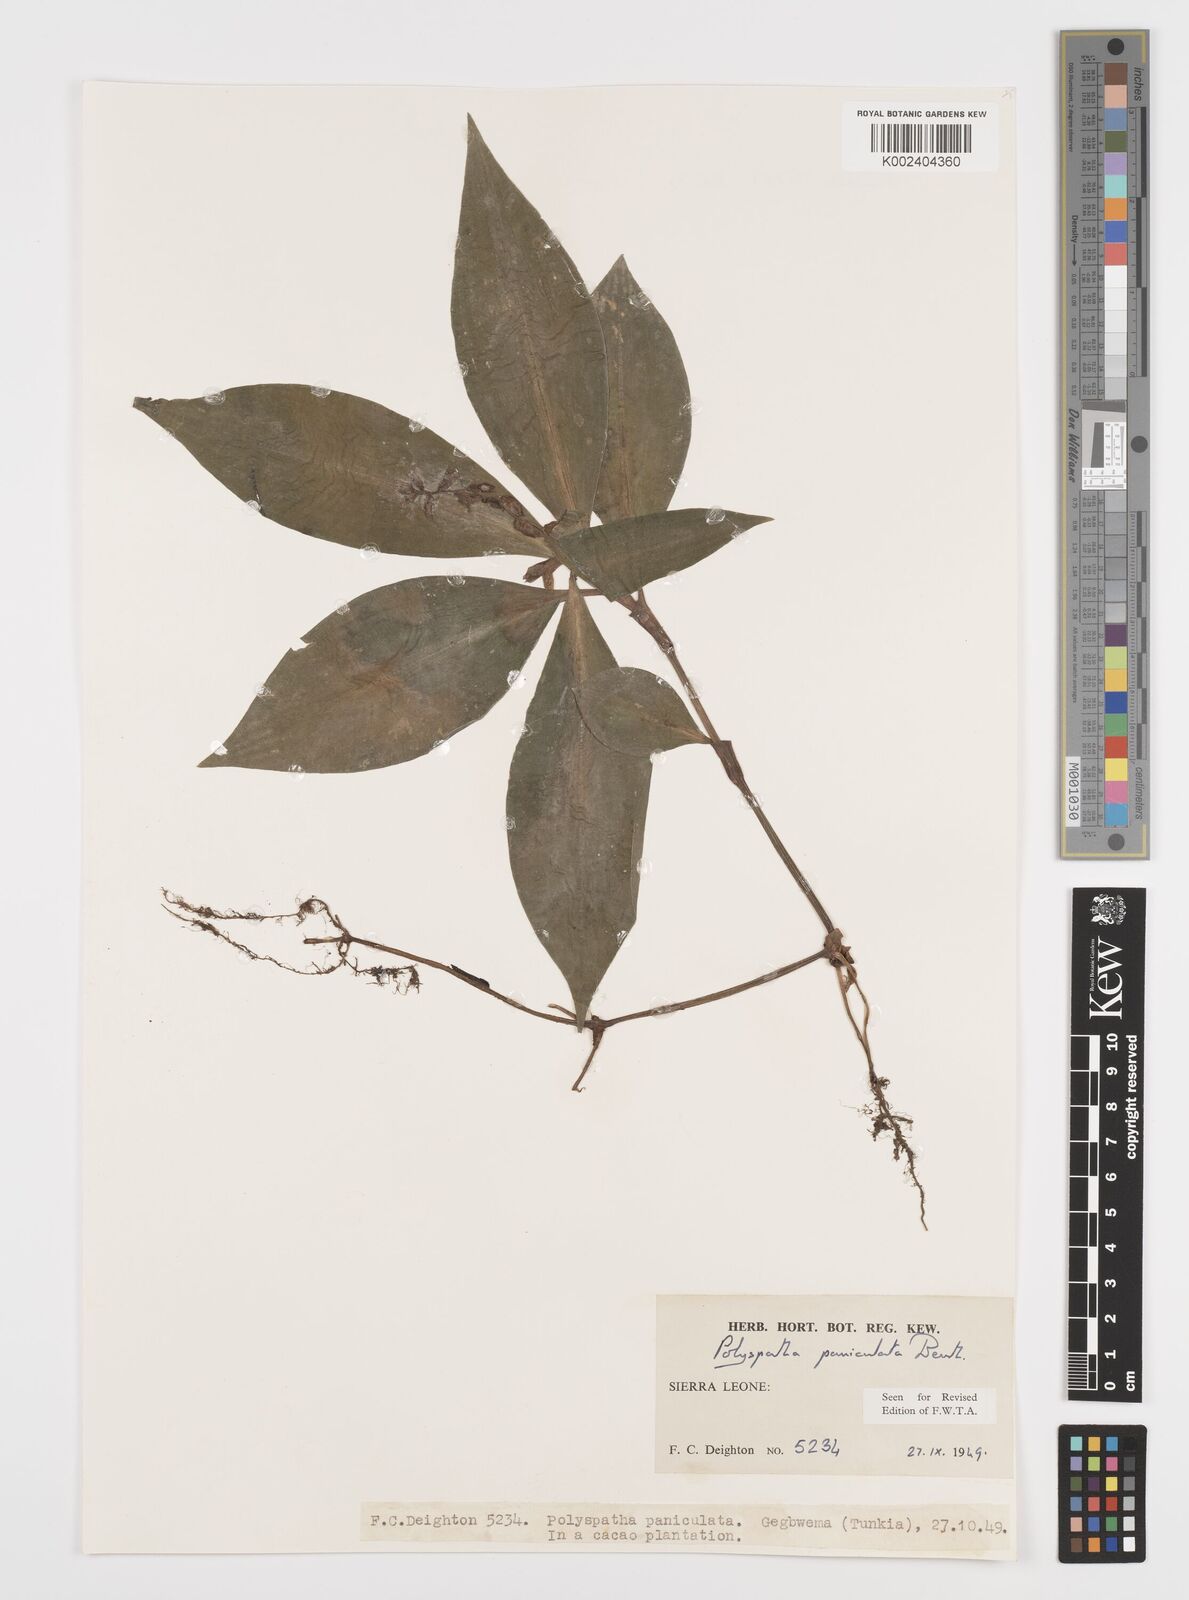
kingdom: Plantae
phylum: Tracheophyta
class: Liliopsida
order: Commelinales
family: Commelinaceae
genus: Polyspatha
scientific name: Polyspatha paniculata
